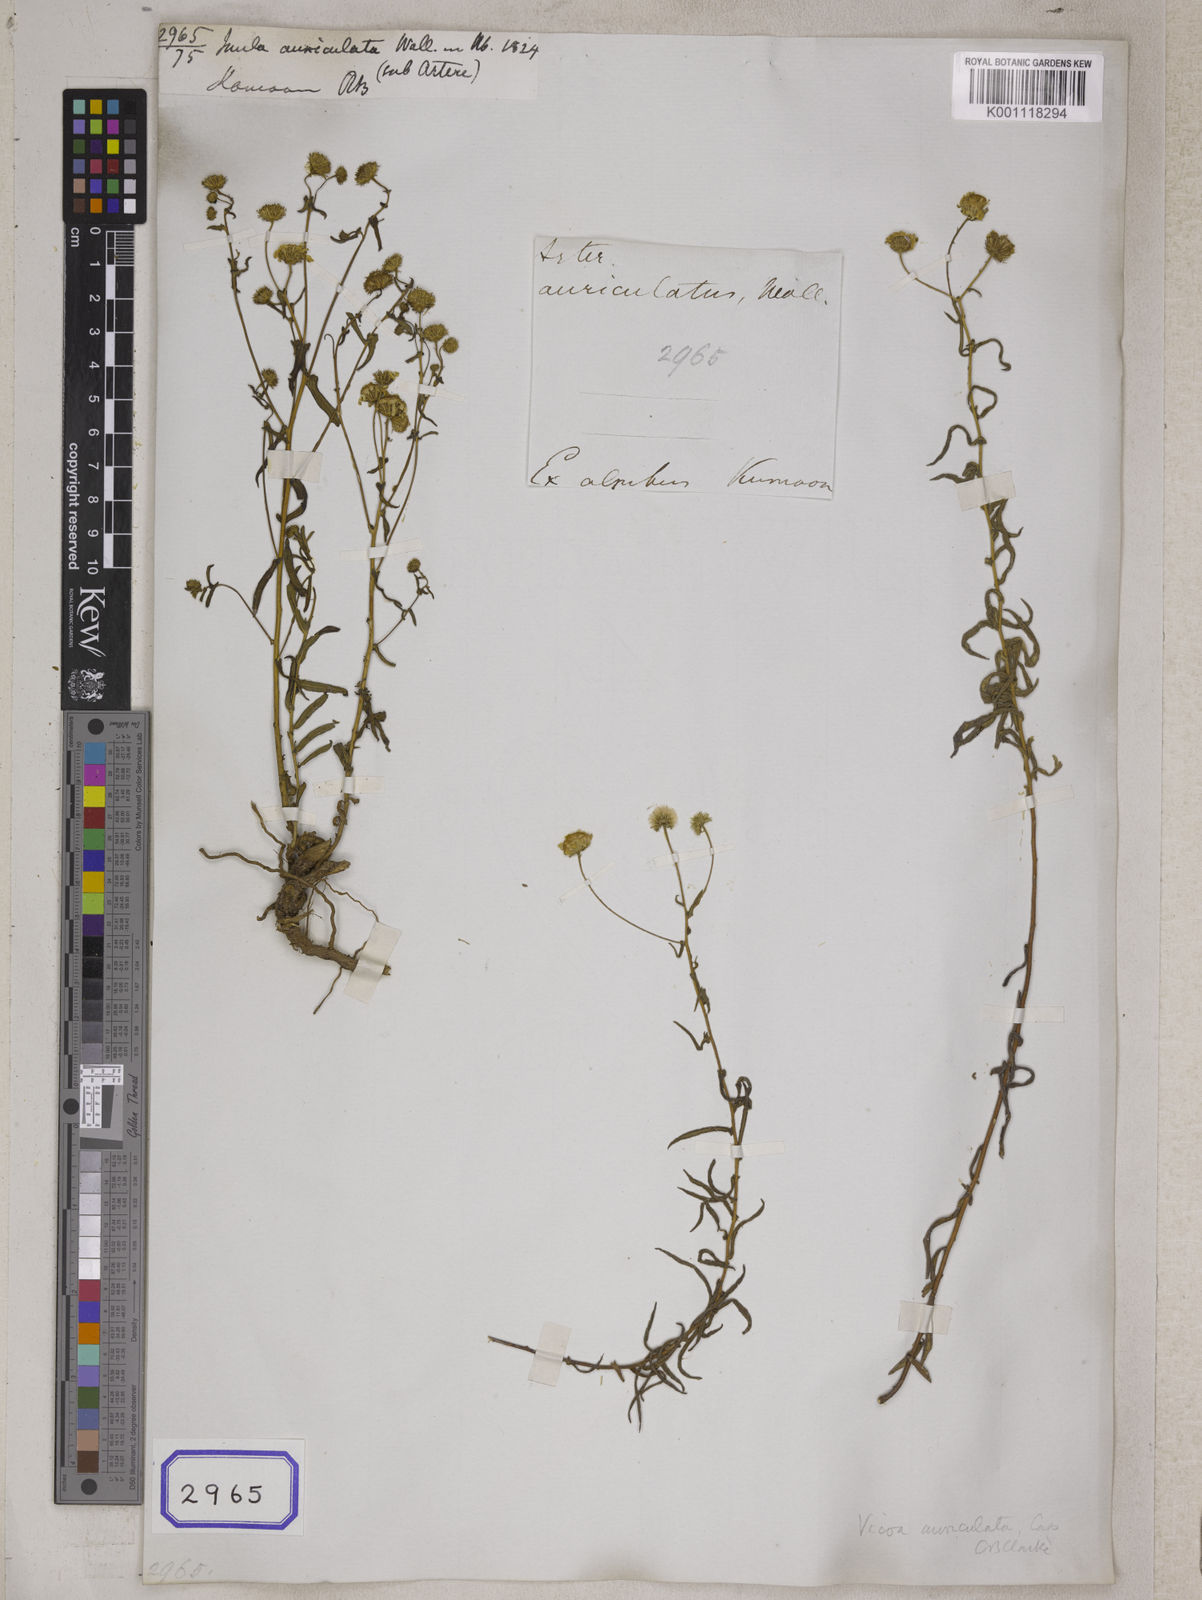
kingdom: Plantae
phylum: Tracheophyta
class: Magnoliopsida
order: Asterales
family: Asteraceae
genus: Vicoa
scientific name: Vicoa indica
